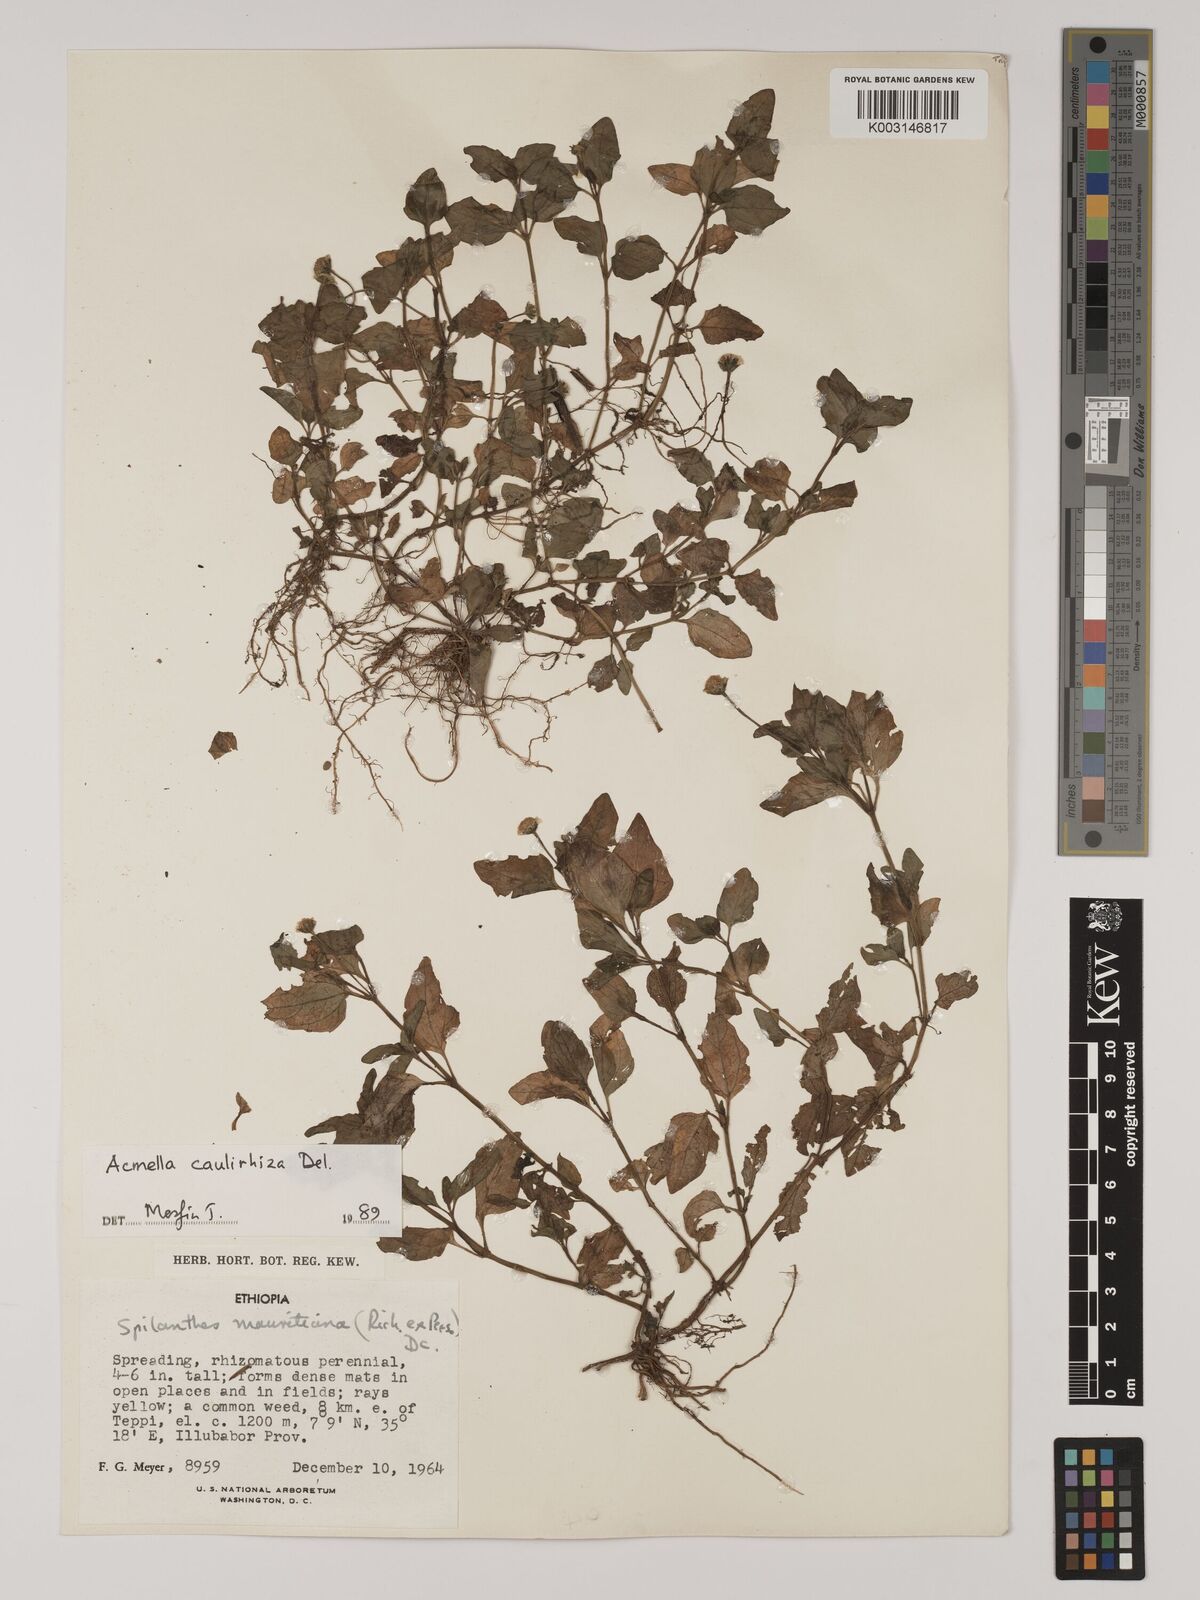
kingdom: Plantae
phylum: Tracheophyta
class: Magnoliopsida
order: Asterales
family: Asteraceae
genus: Blainvillea
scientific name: Blainvillea acmella
